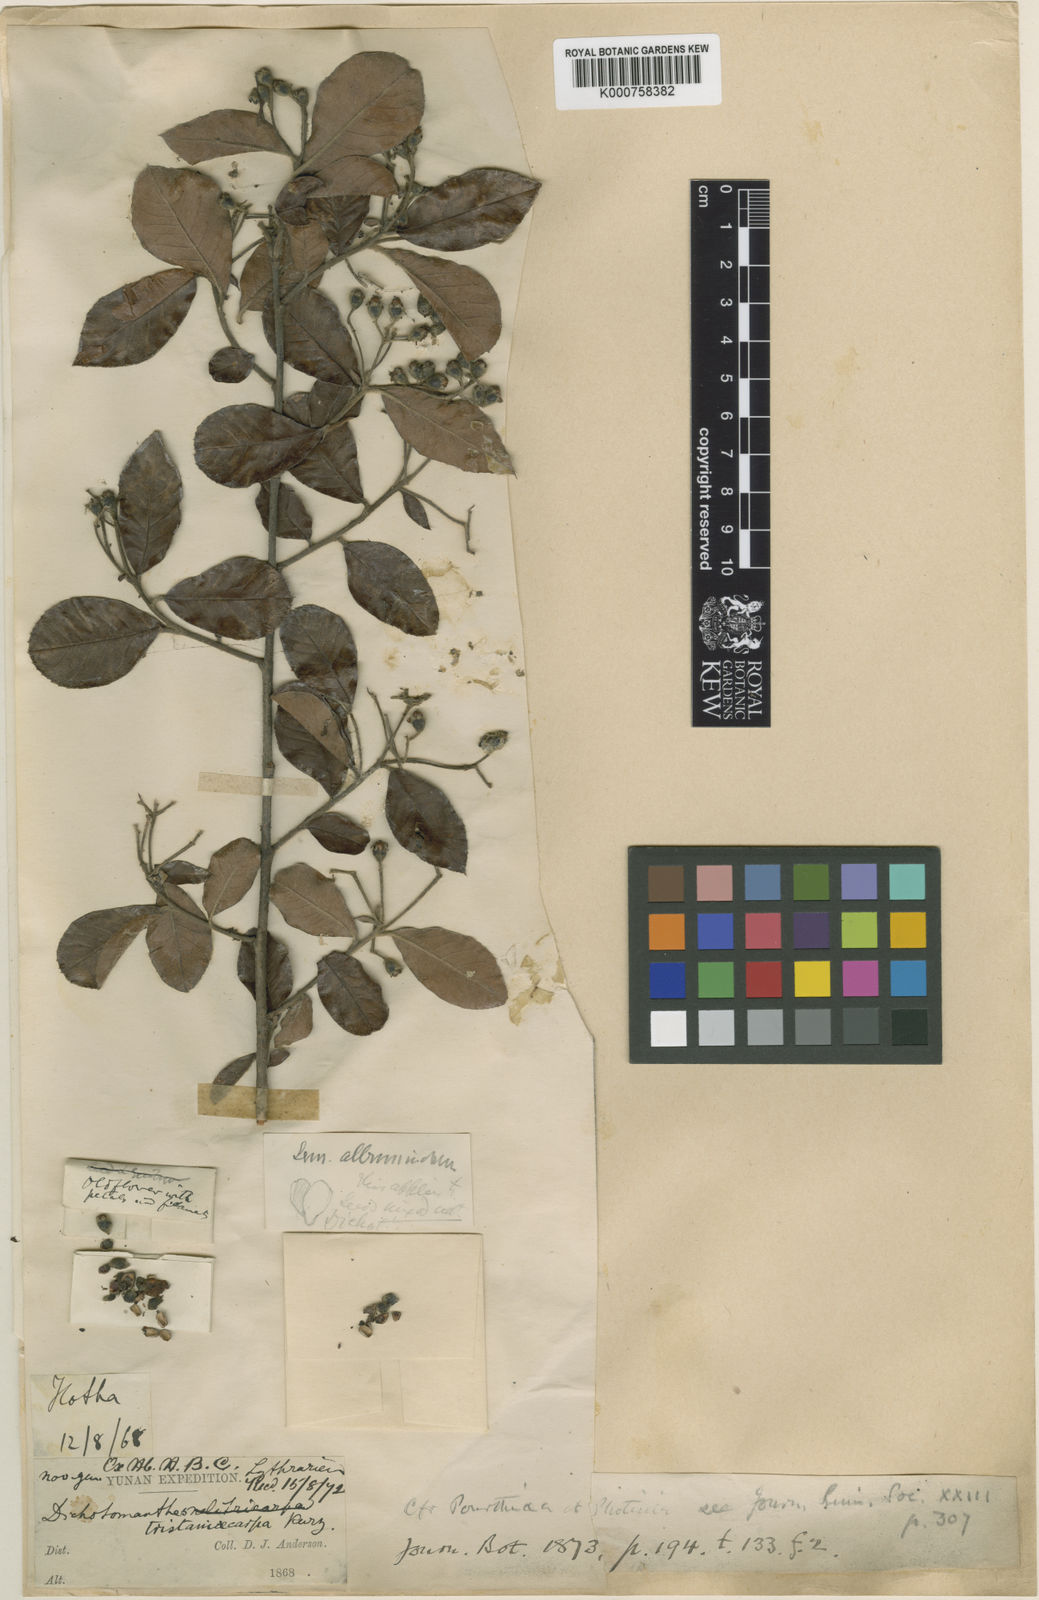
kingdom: Plantae
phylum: Tracheophyta
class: Magnoliopsida
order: Rosales
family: Rosaceae
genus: Dichotomanthes
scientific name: Dichotomanthes
